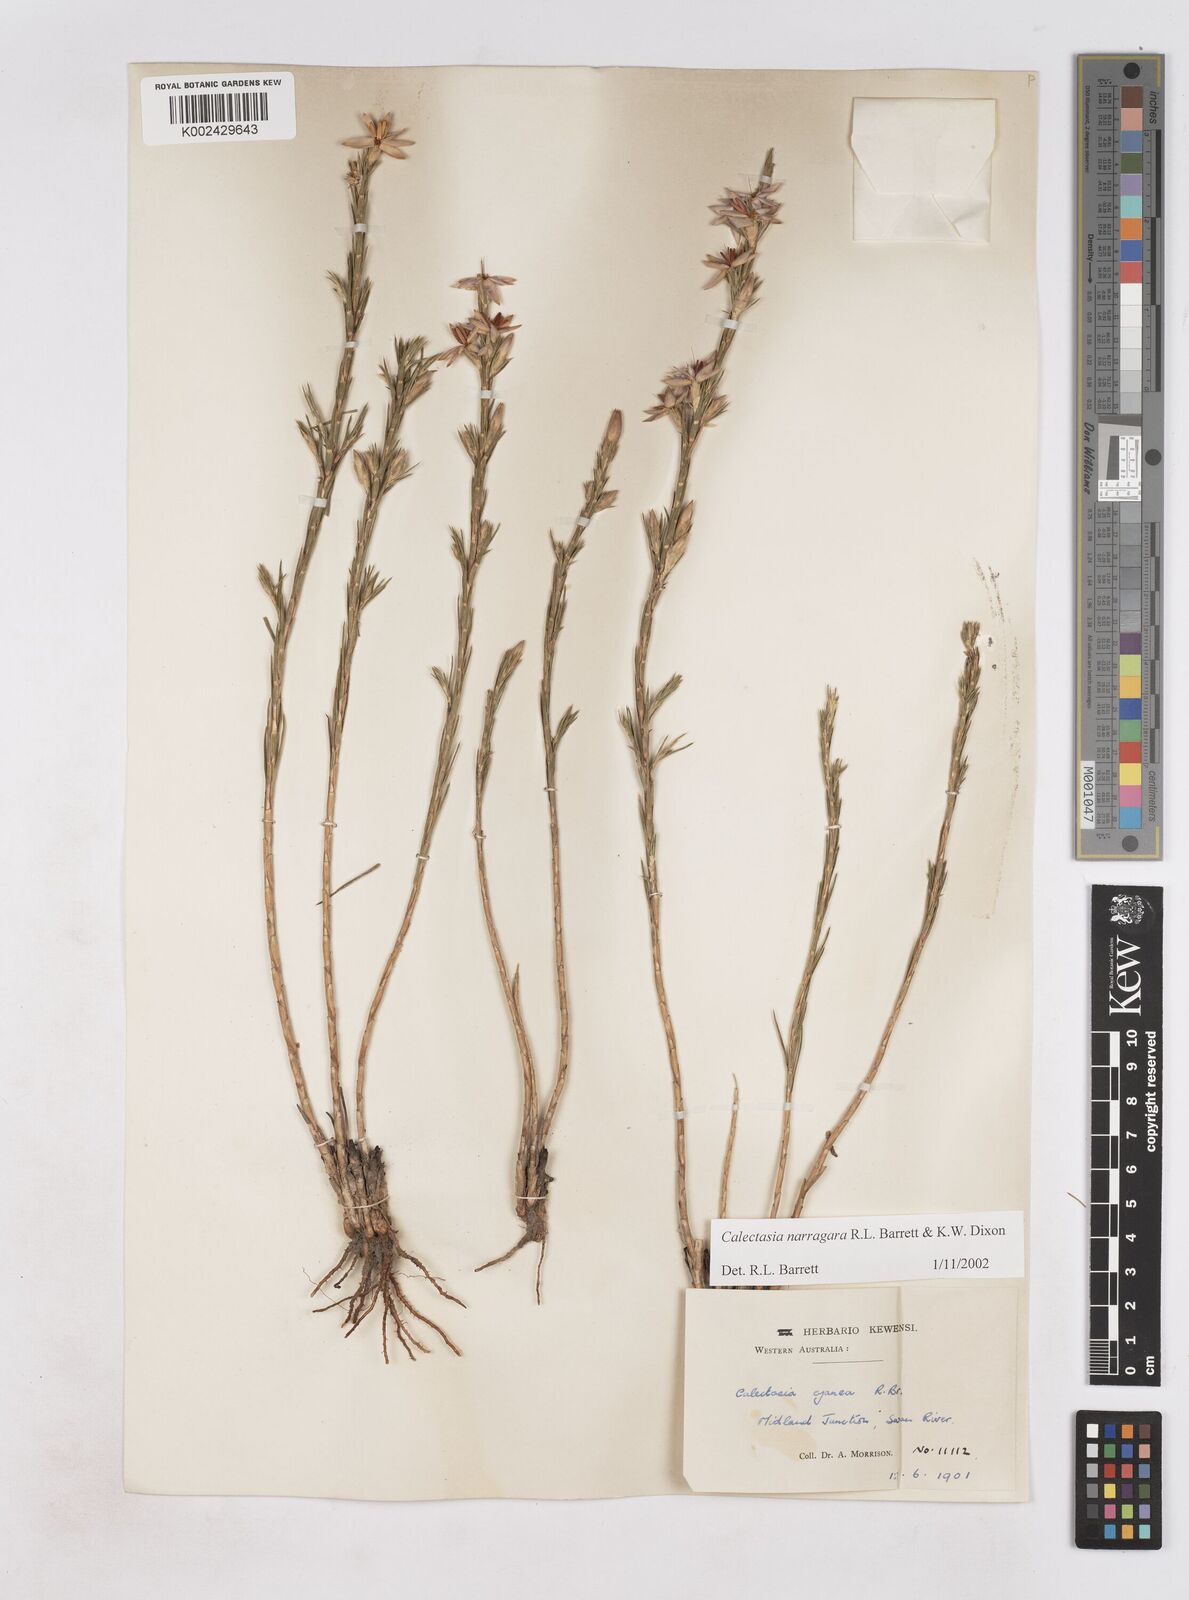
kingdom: Plantae
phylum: Tracheophyta
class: Liliopsida
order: Arecales
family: Dasypogonaceae
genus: Calectasia
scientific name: Calectasia narragara
